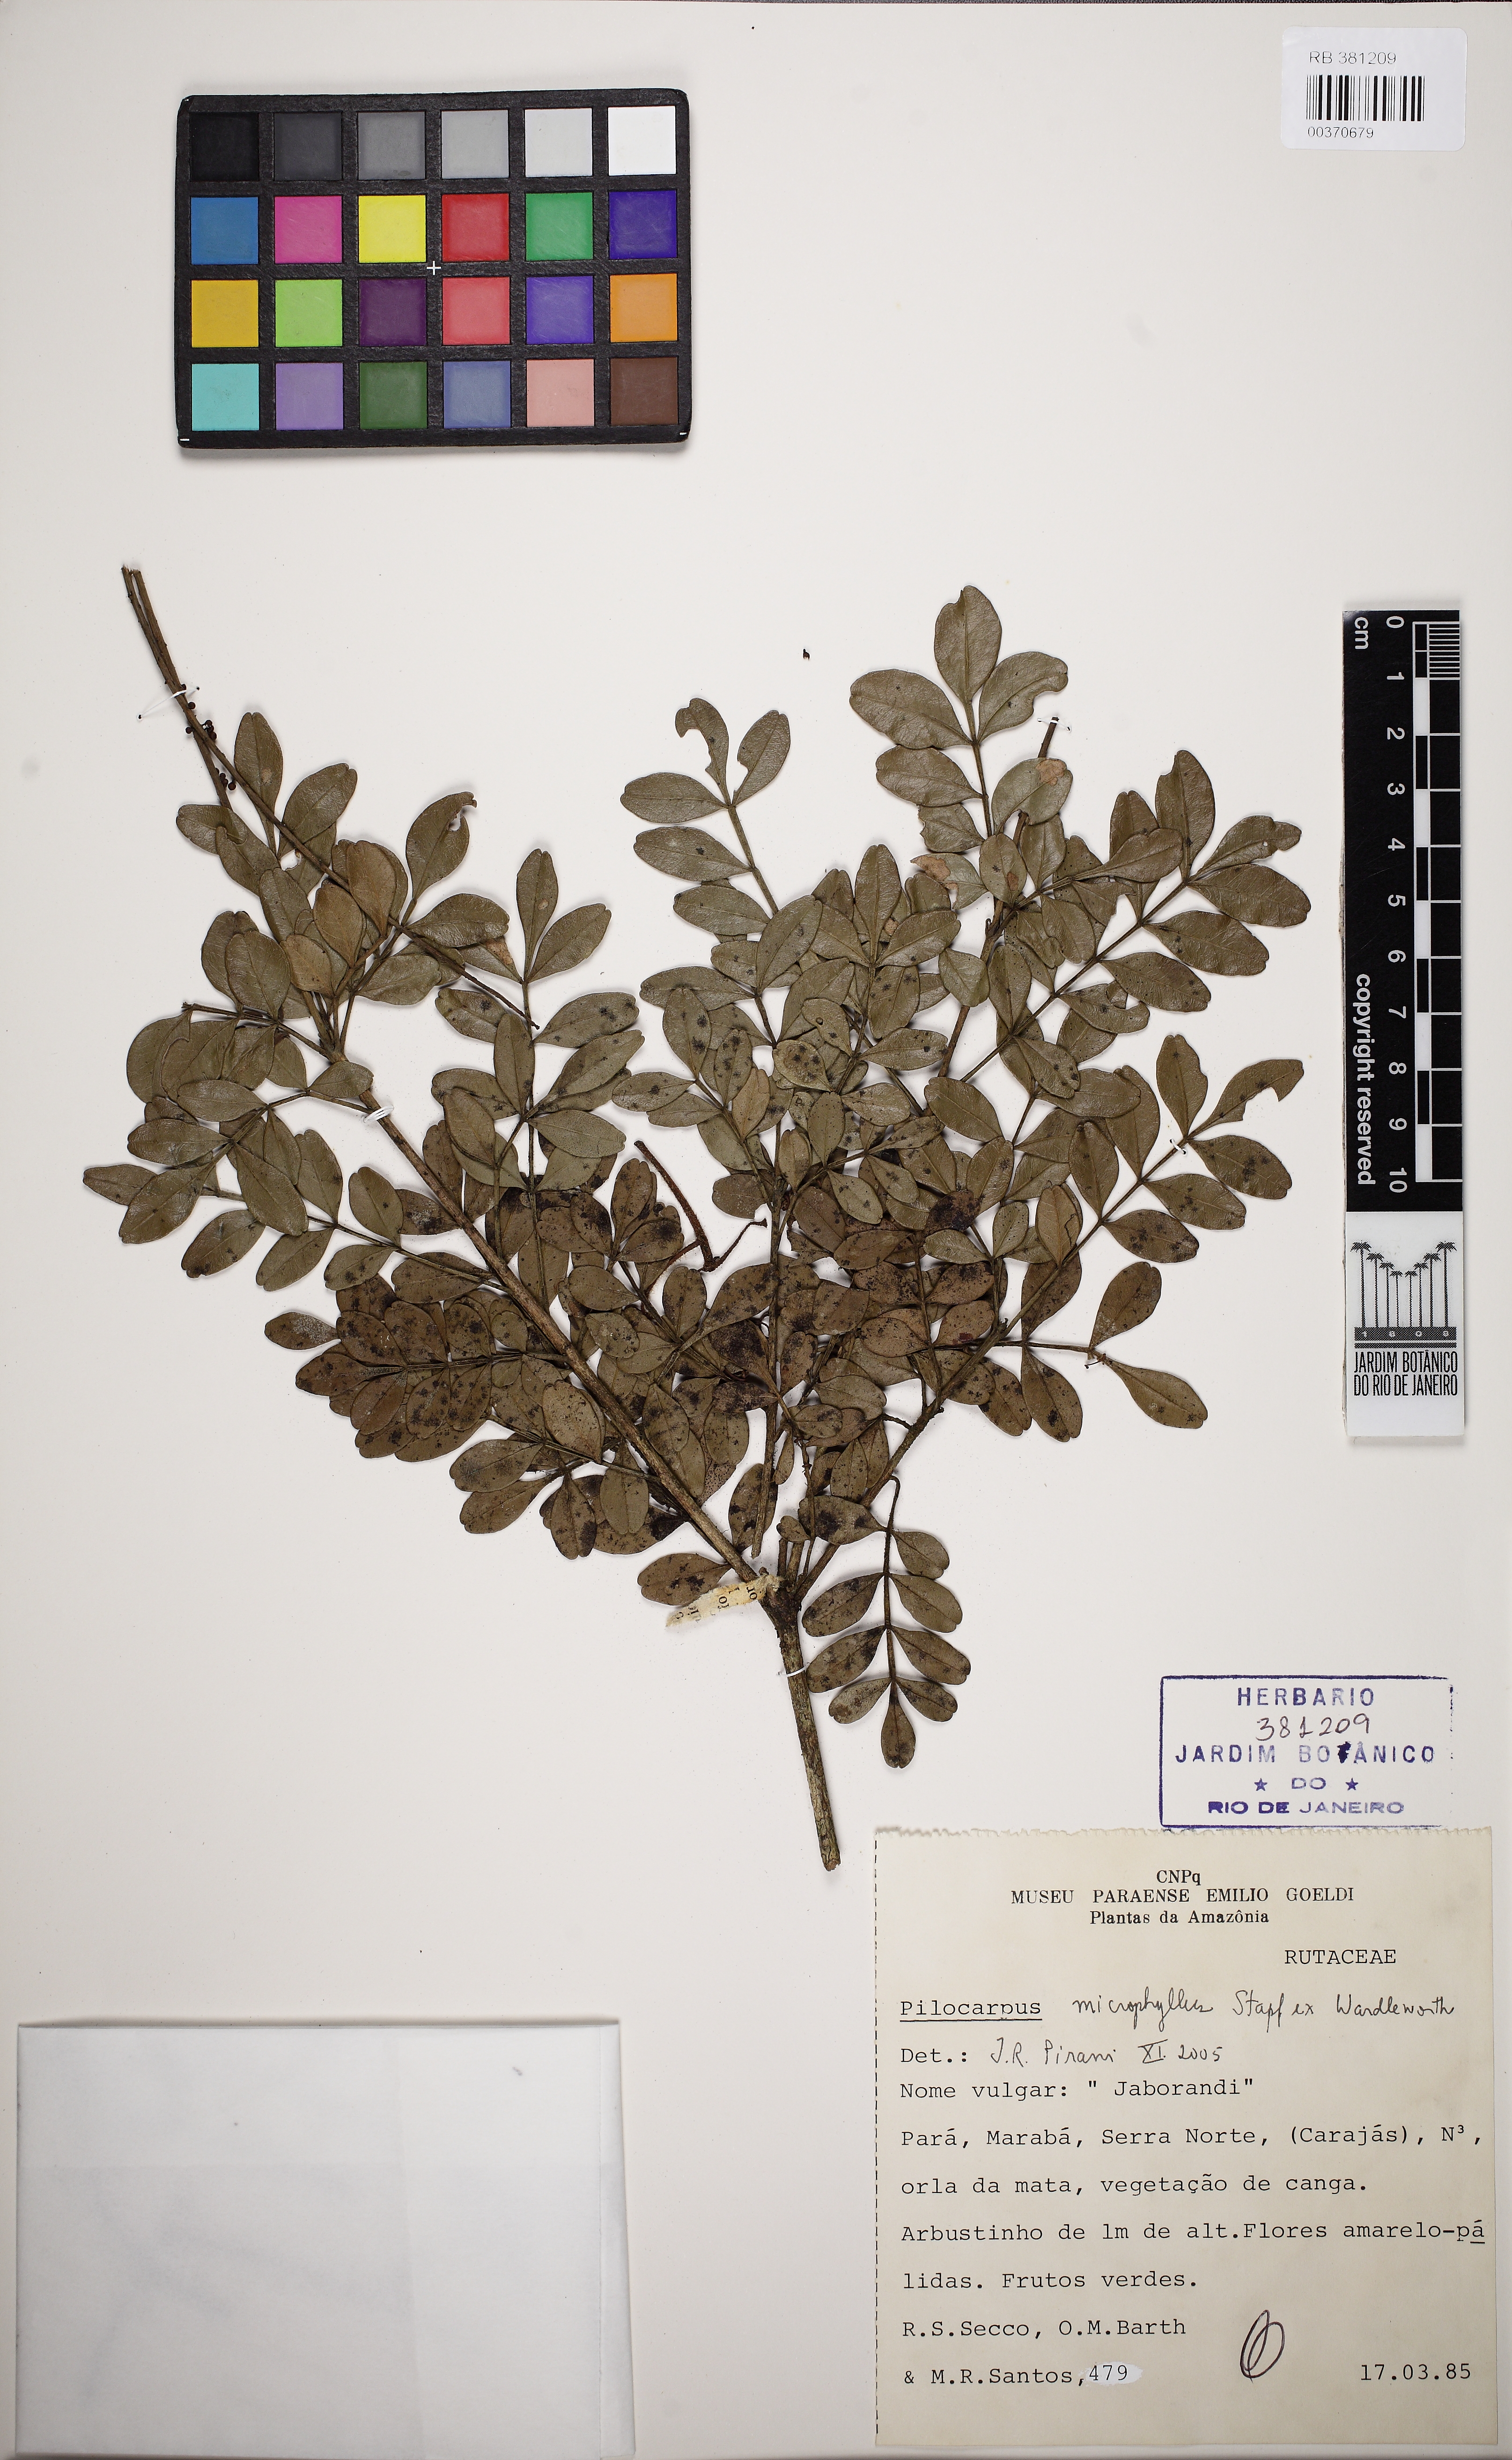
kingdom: Plantae
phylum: Tracheophyta
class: Magnoliopsida
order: Sapindales
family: Rutaceae
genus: Pilocarpus
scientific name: Pilocarpus microphyllus
